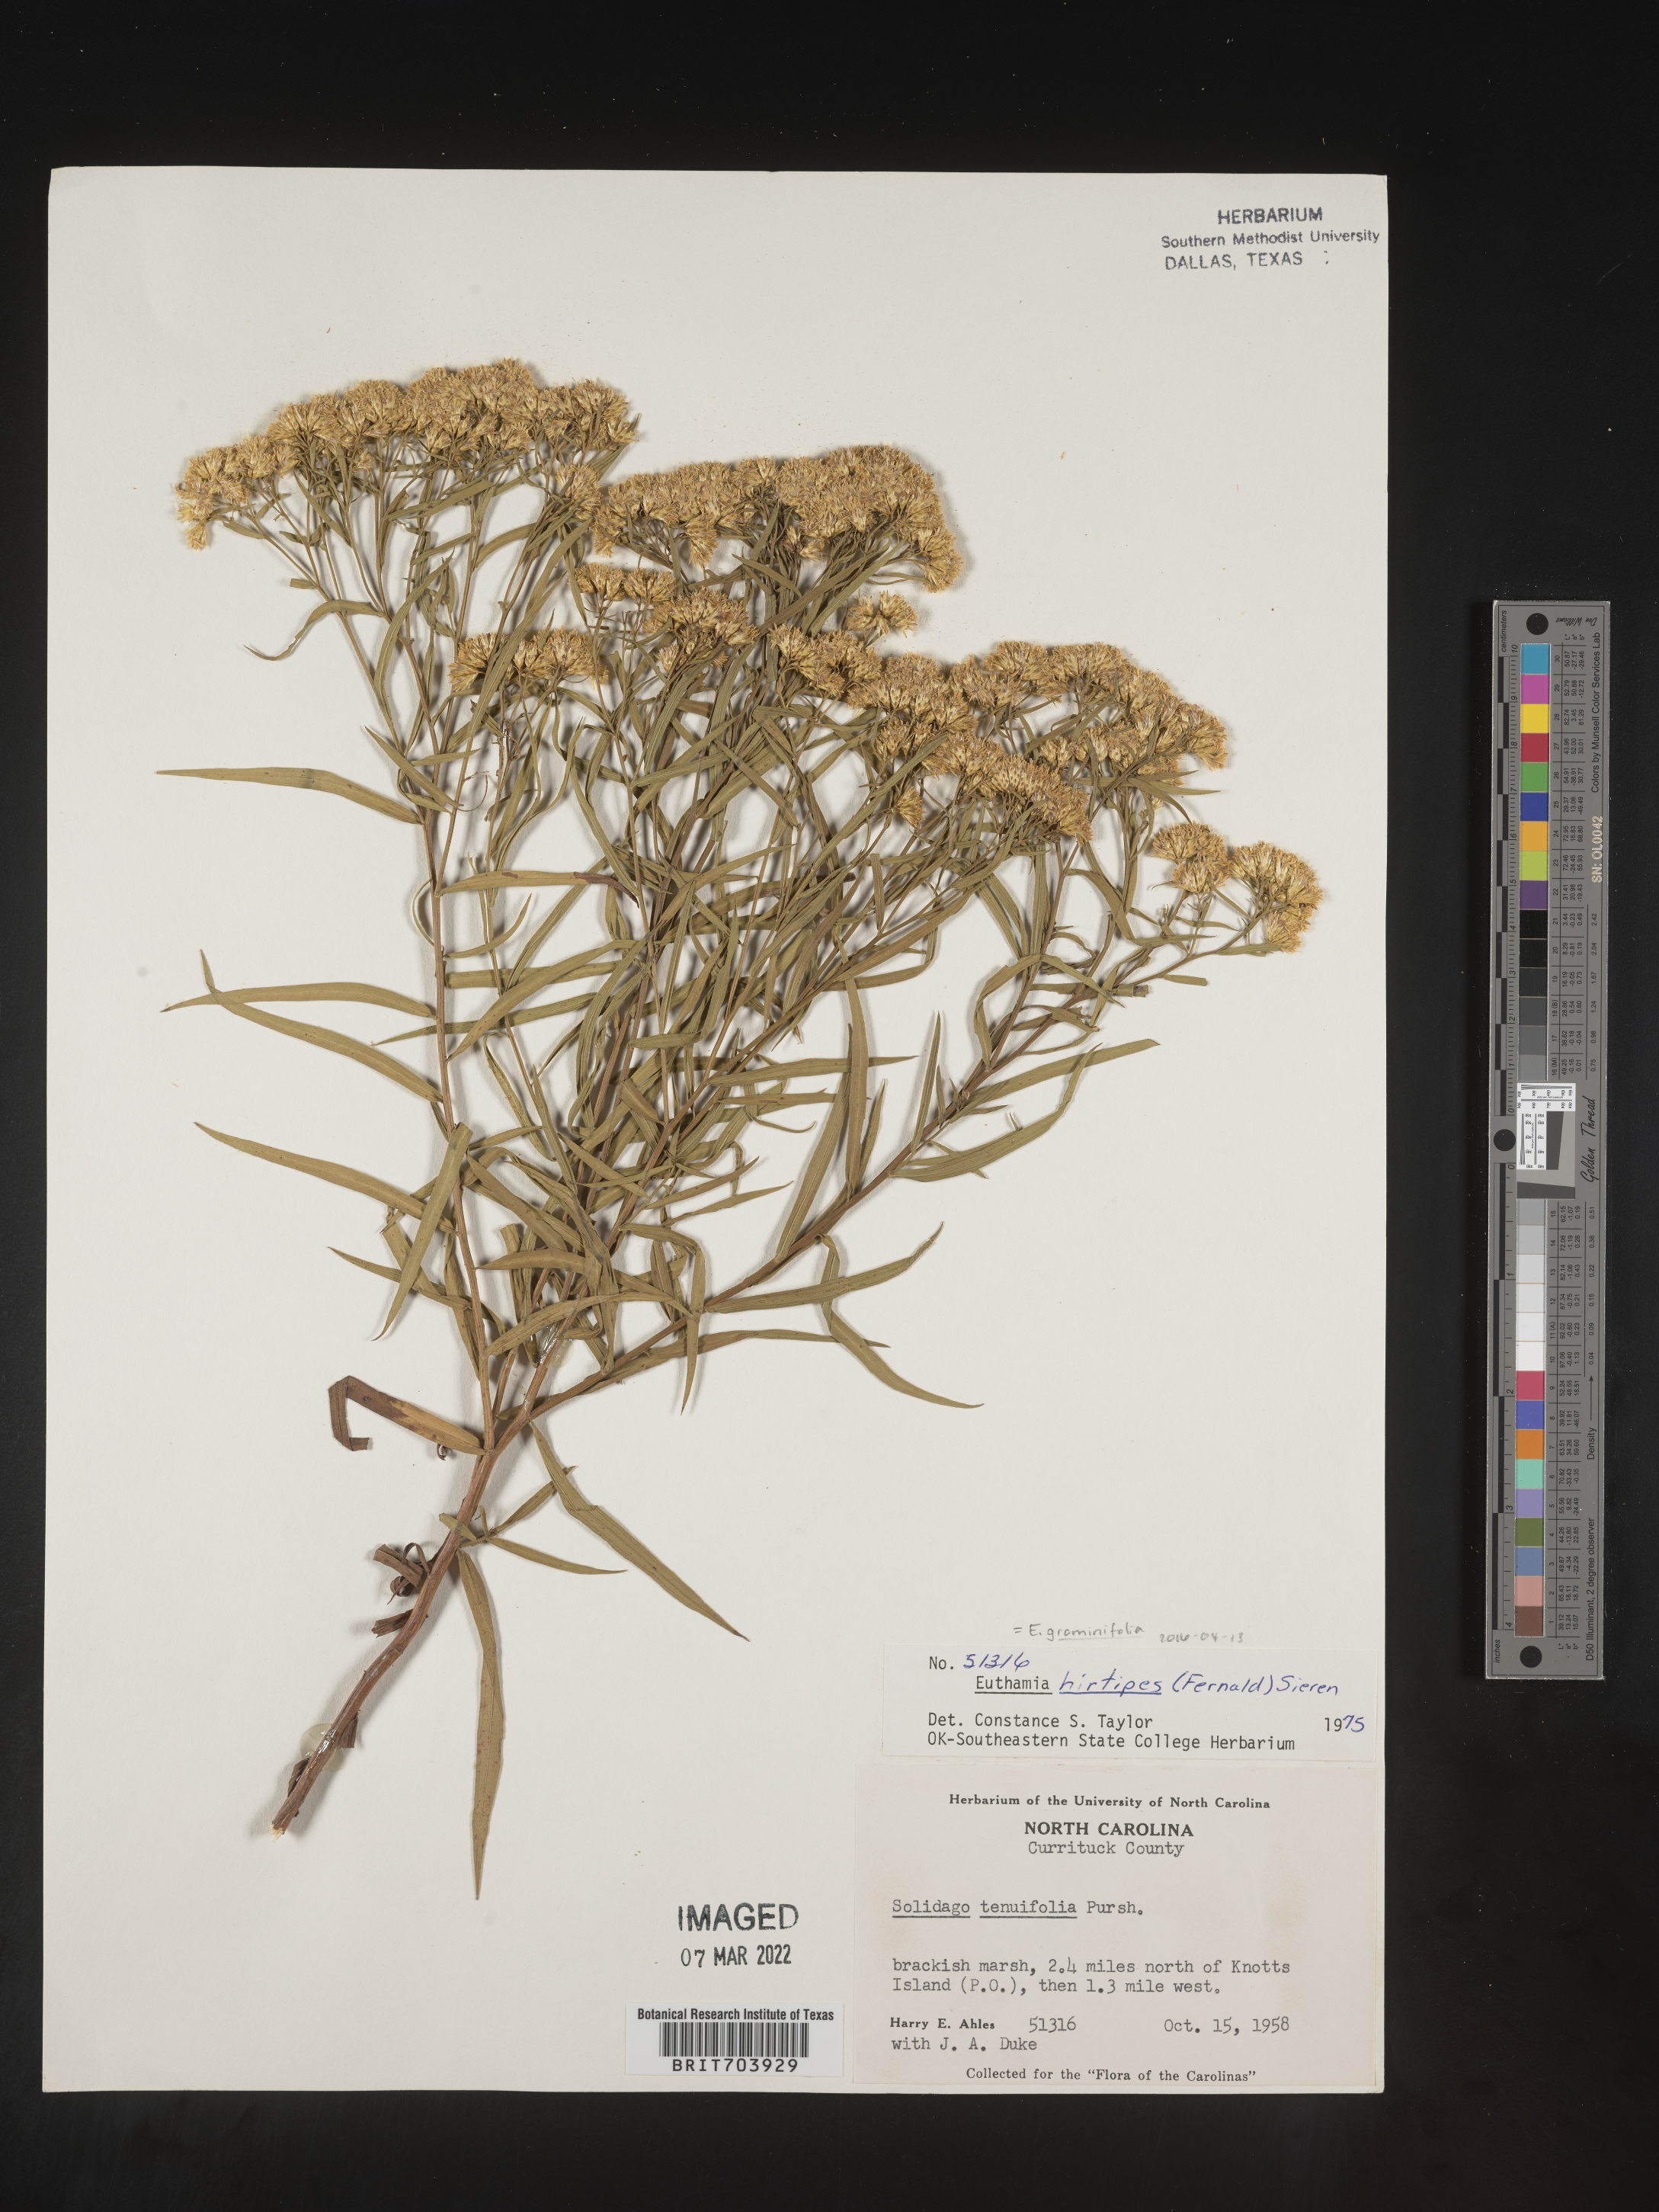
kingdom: Plantae
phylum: Tracheophyta
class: Magnoliopsida
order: Asterales
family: Asteraceae
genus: Euthamia
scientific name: Euthamia graminifolia
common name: Common goldentop
